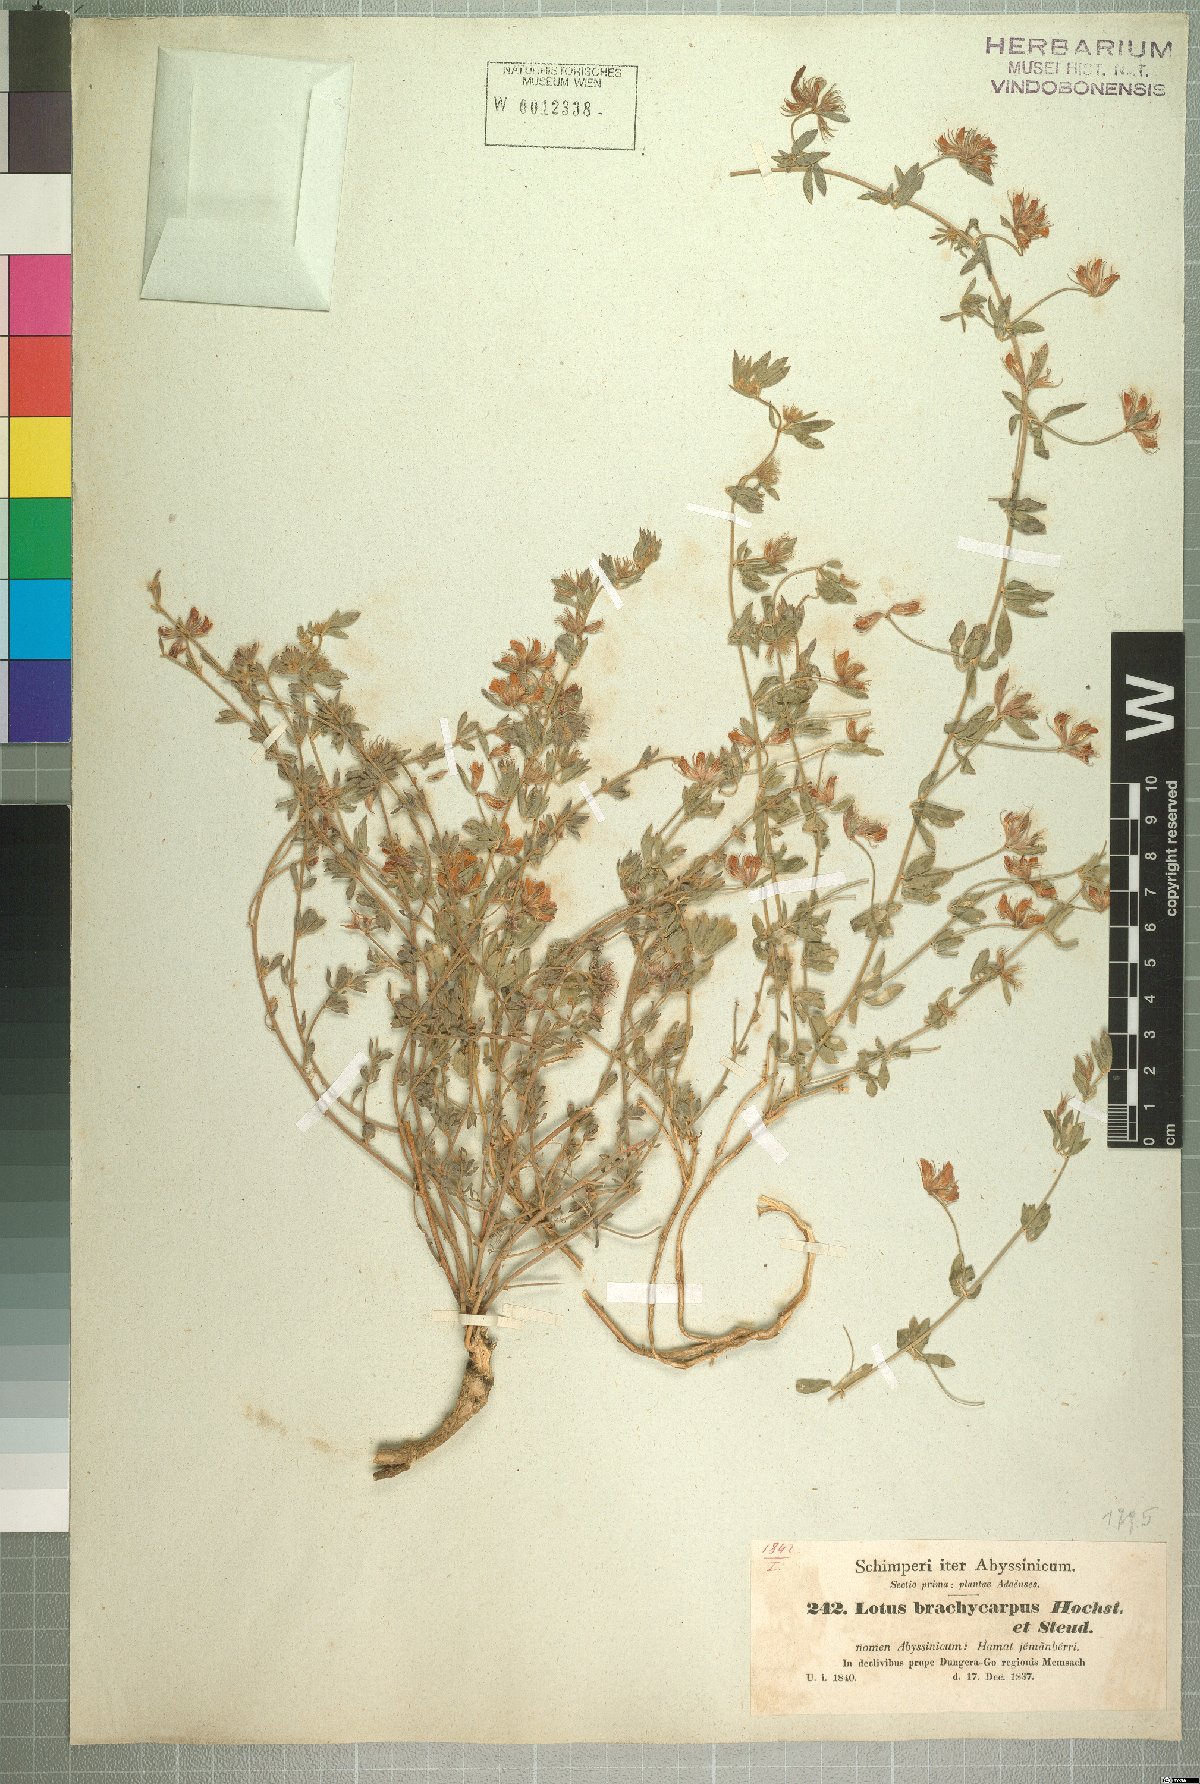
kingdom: Plantae
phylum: Tracheophyta
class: Magnoliopsida
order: Fabales
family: Fabaceae
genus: Lotus
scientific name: Lotus quinatus
